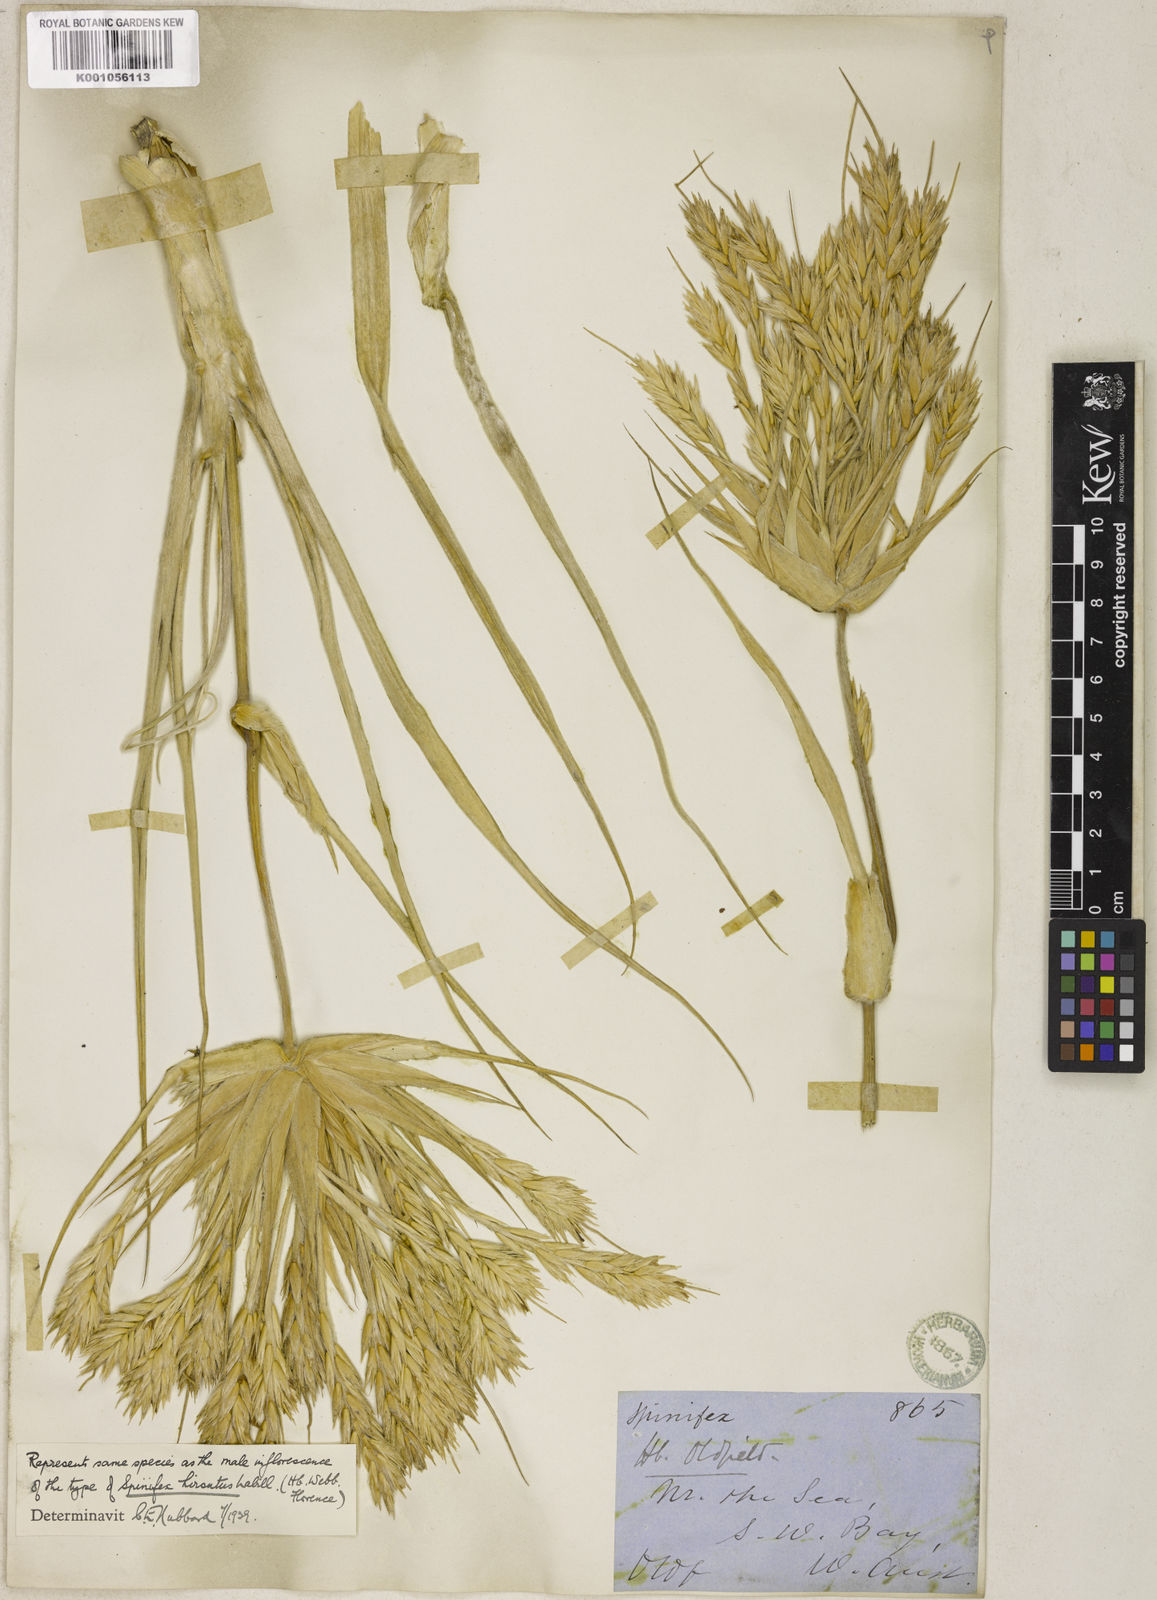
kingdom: Plantae
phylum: Tracheophyta
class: Liliopsida
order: Poales
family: Poaceae
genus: Spinifex
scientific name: Spinifex hirsutus
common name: Hairy spinifex
